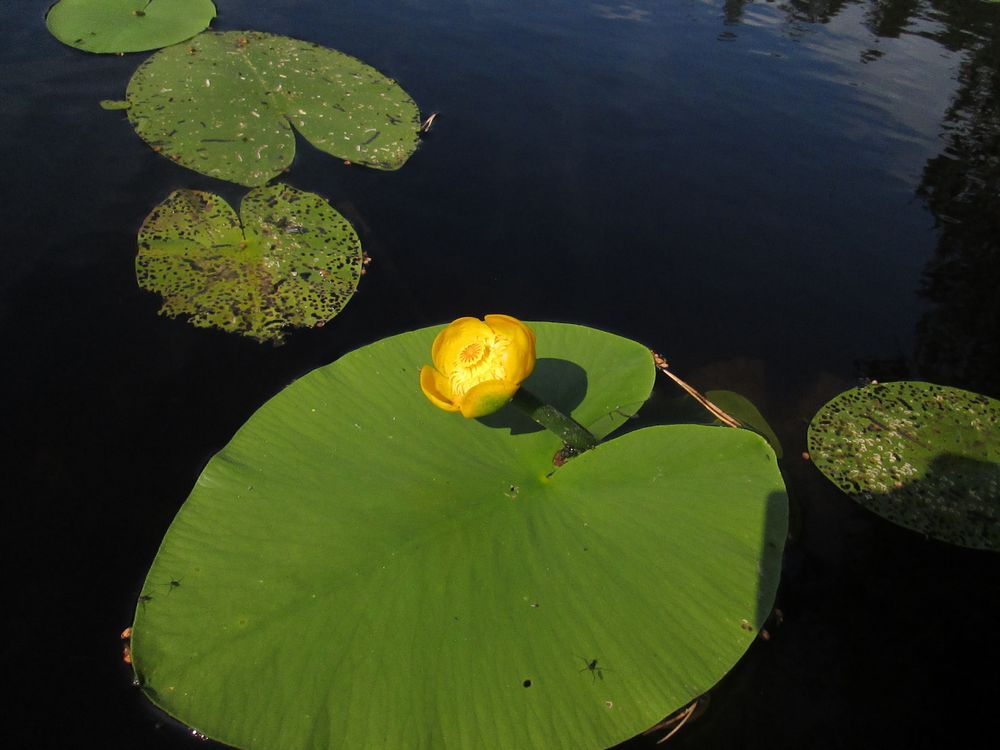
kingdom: Plantae
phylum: Tracheophyta
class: Magnoliopsida
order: Nymphaeales
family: Nymphaeaceae
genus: Nuphar
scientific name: Nuphar lutea
